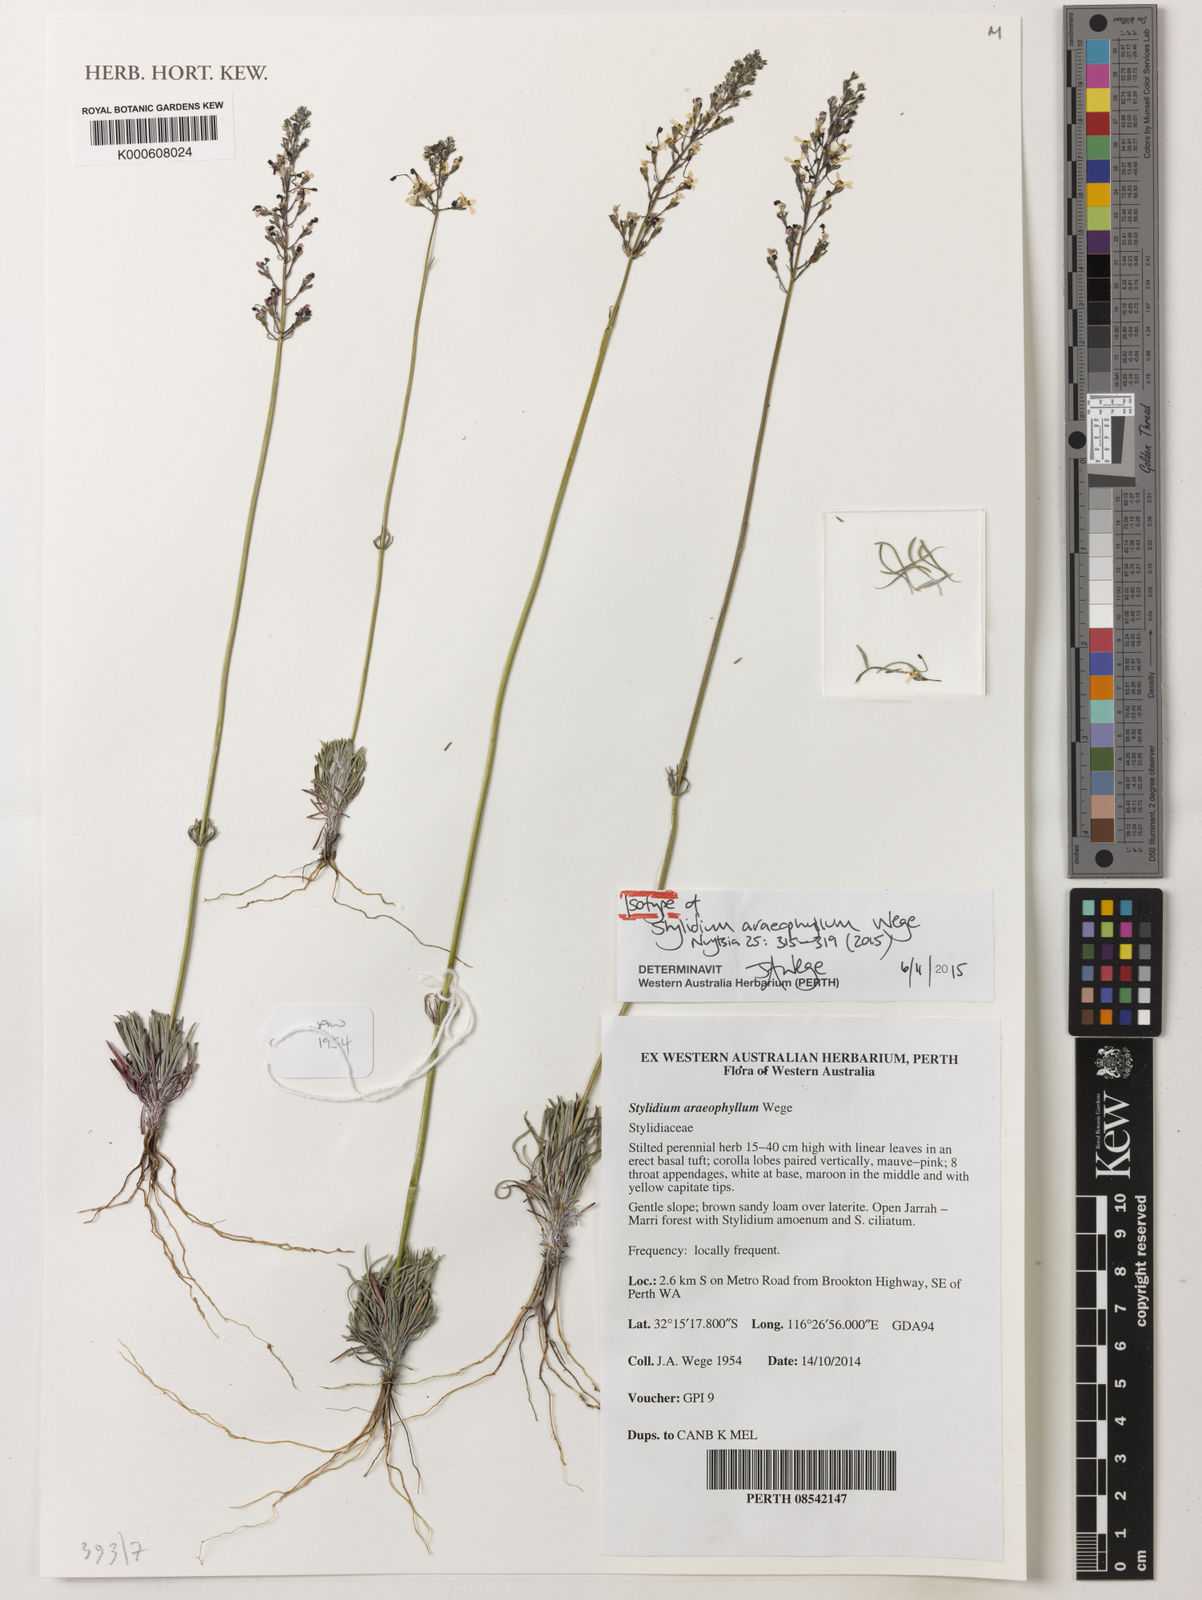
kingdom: Plantae
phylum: Tracheophyta
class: Magnoliopsida
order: Asterales
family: Stylidiaceae
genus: Stylidium
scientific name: Stylidium
